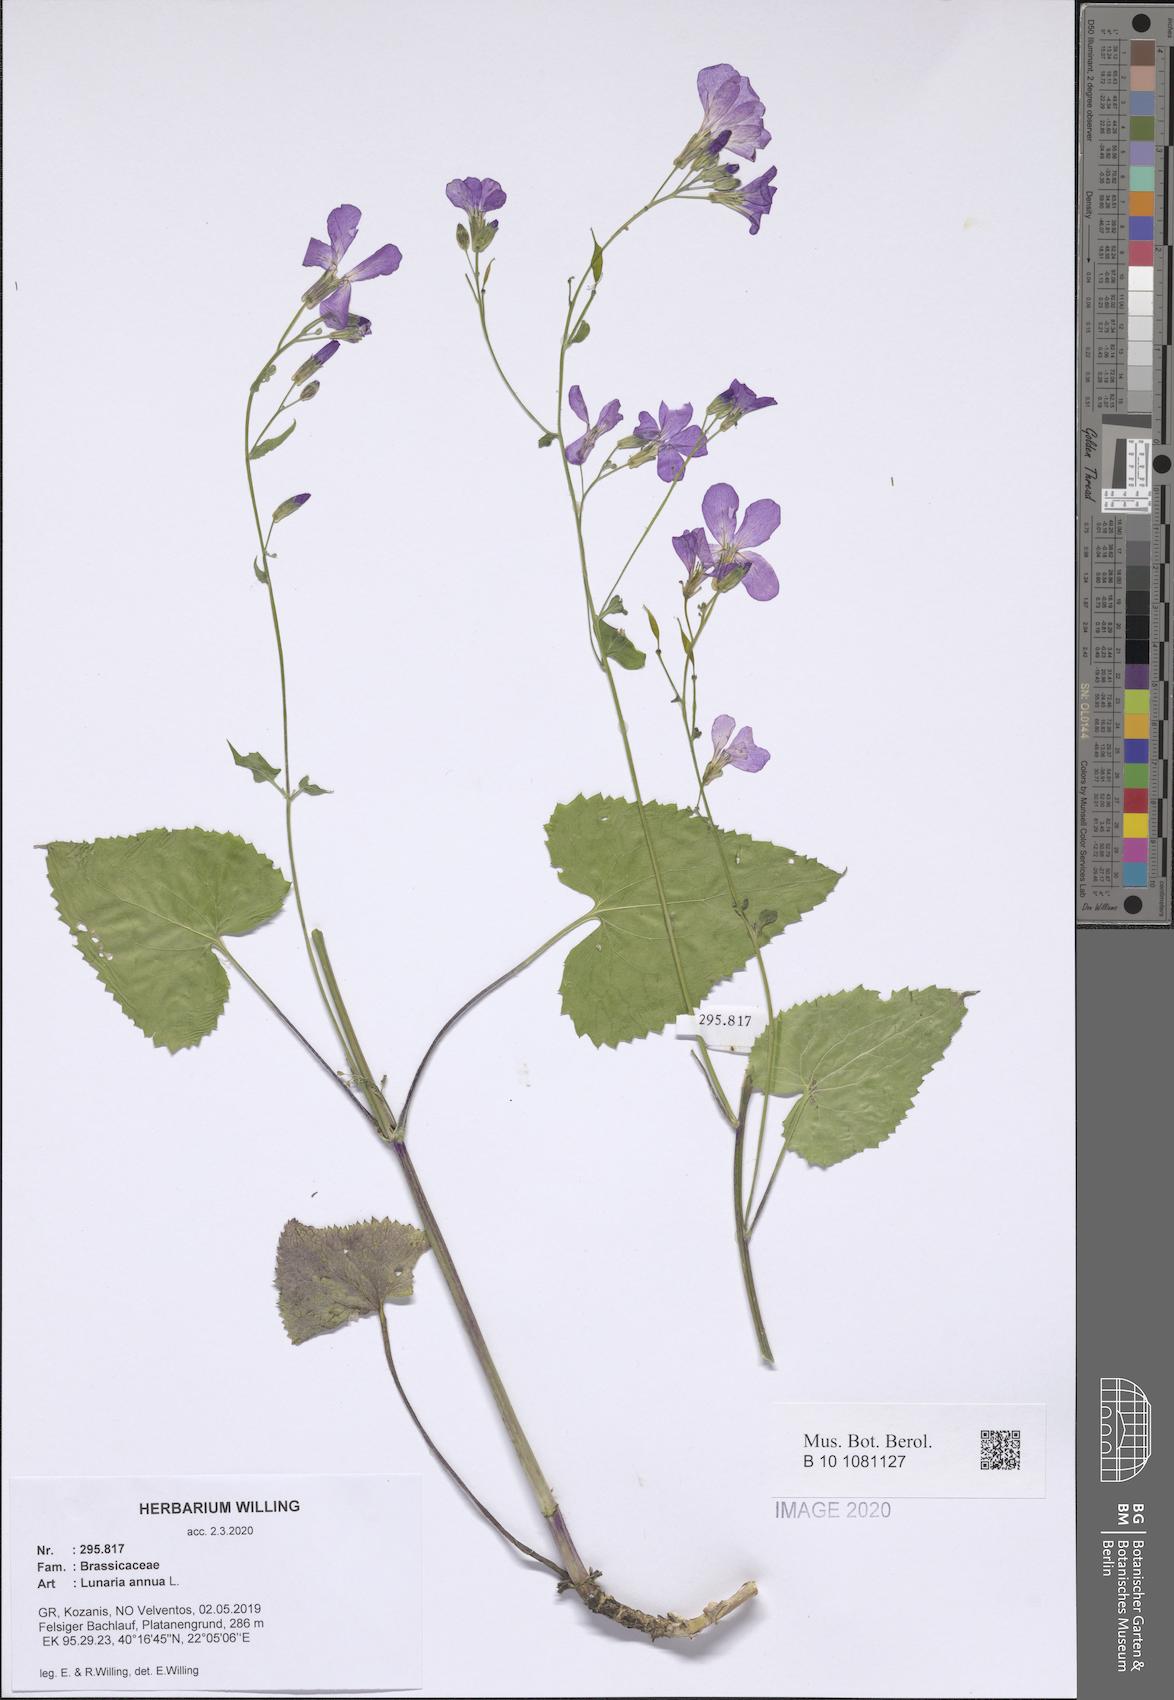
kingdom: Plantae
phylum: Tracheophyta
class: Magnoliopsida
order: Brassicales
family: Brassicaceae
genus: Lunaria
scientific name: Lunaria annua
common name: Honesty
